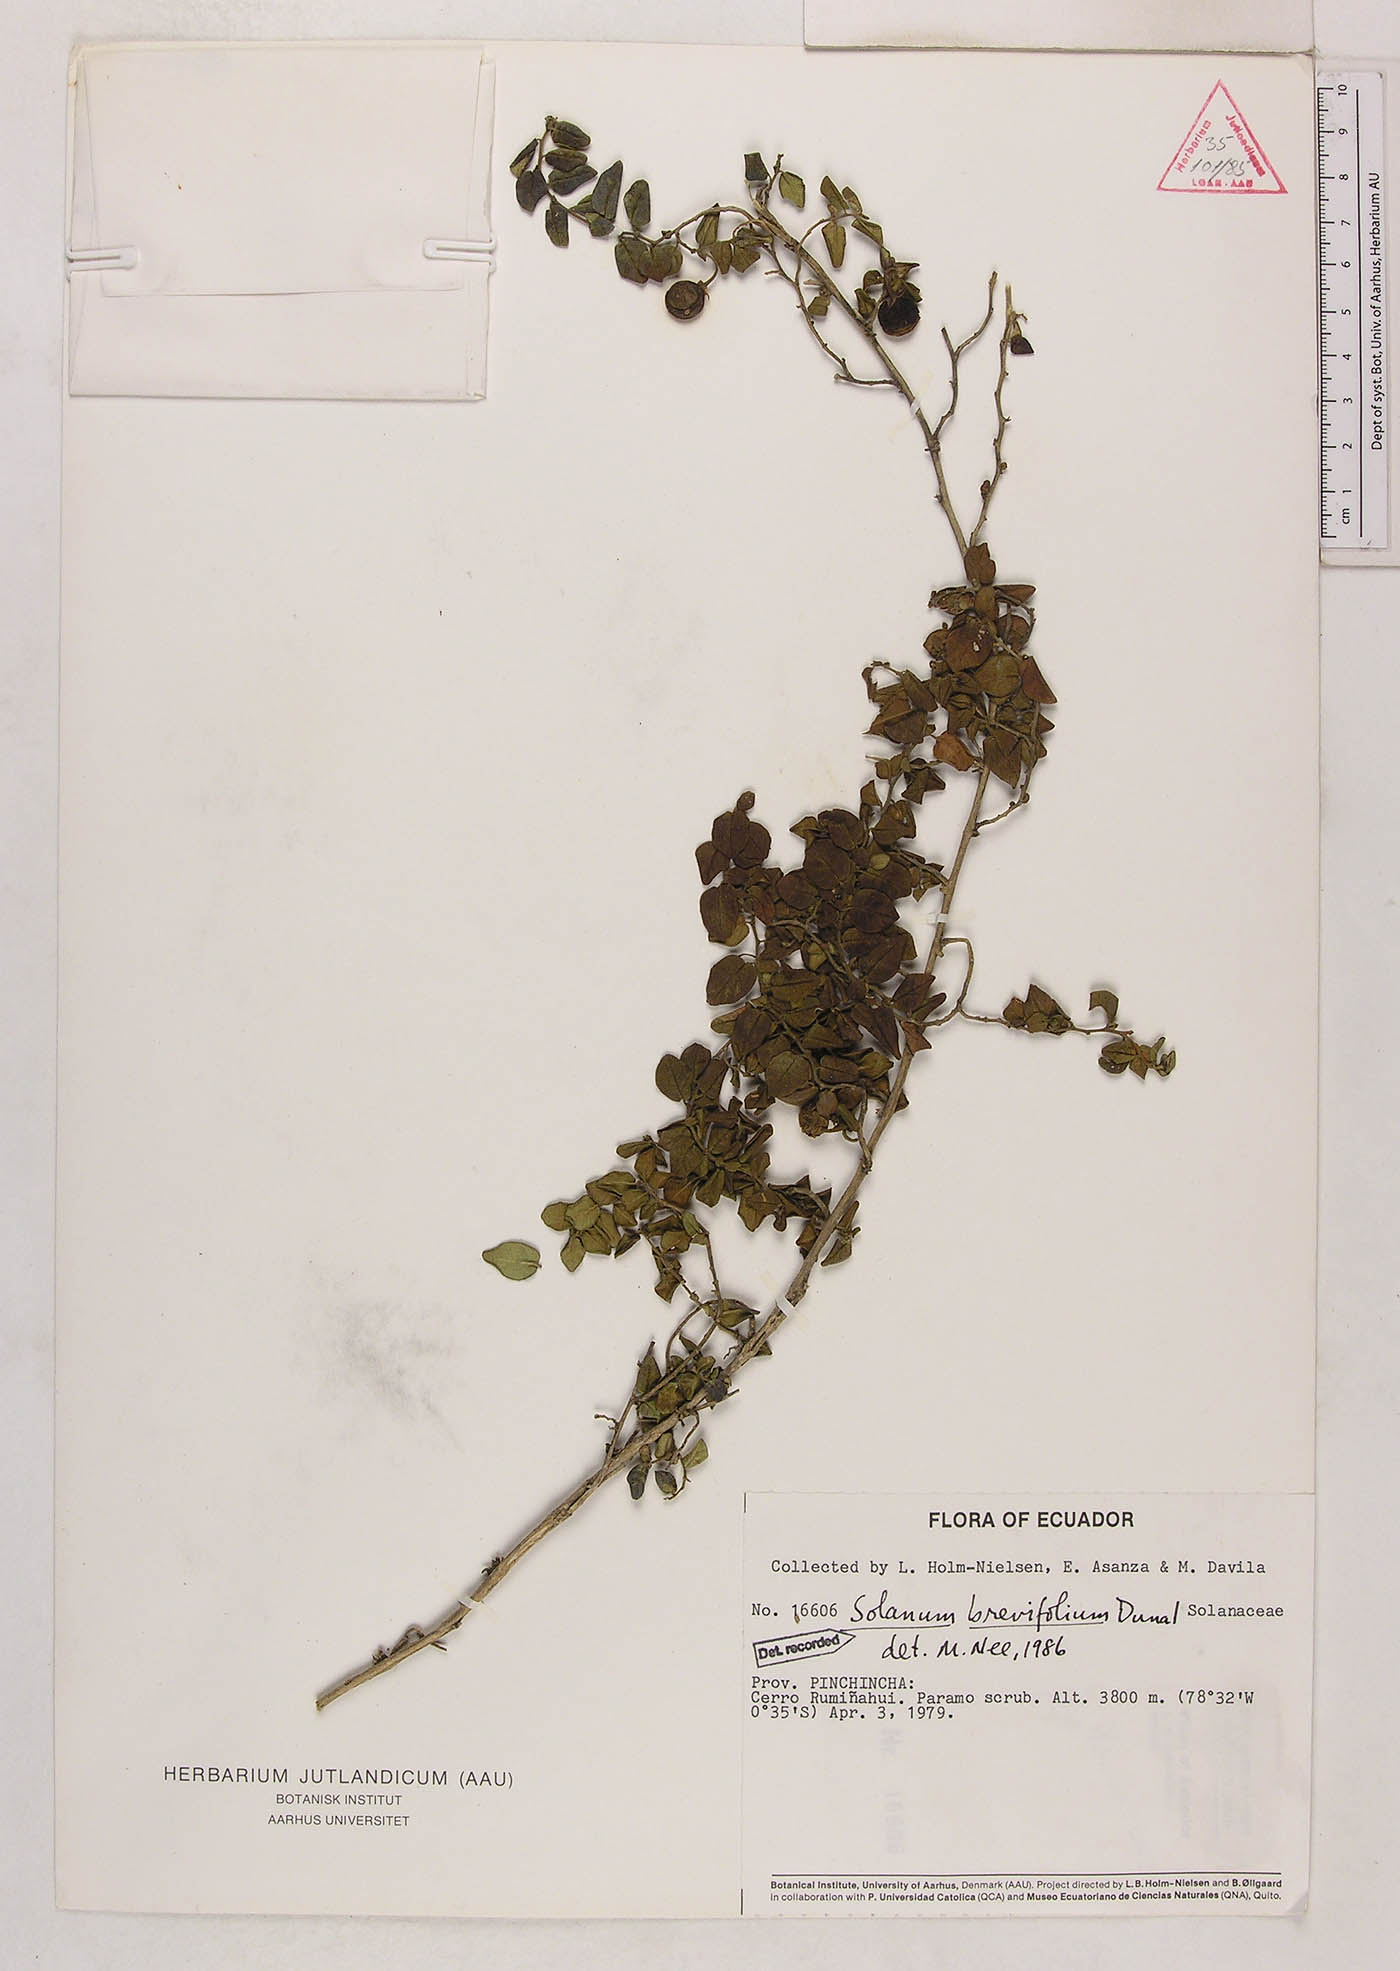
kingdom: Plantae
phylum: Tracheophyta
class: Magnoliopsida
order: Solanales
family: Solanaceae
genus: Solanum
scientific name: Solanum brevifolium
